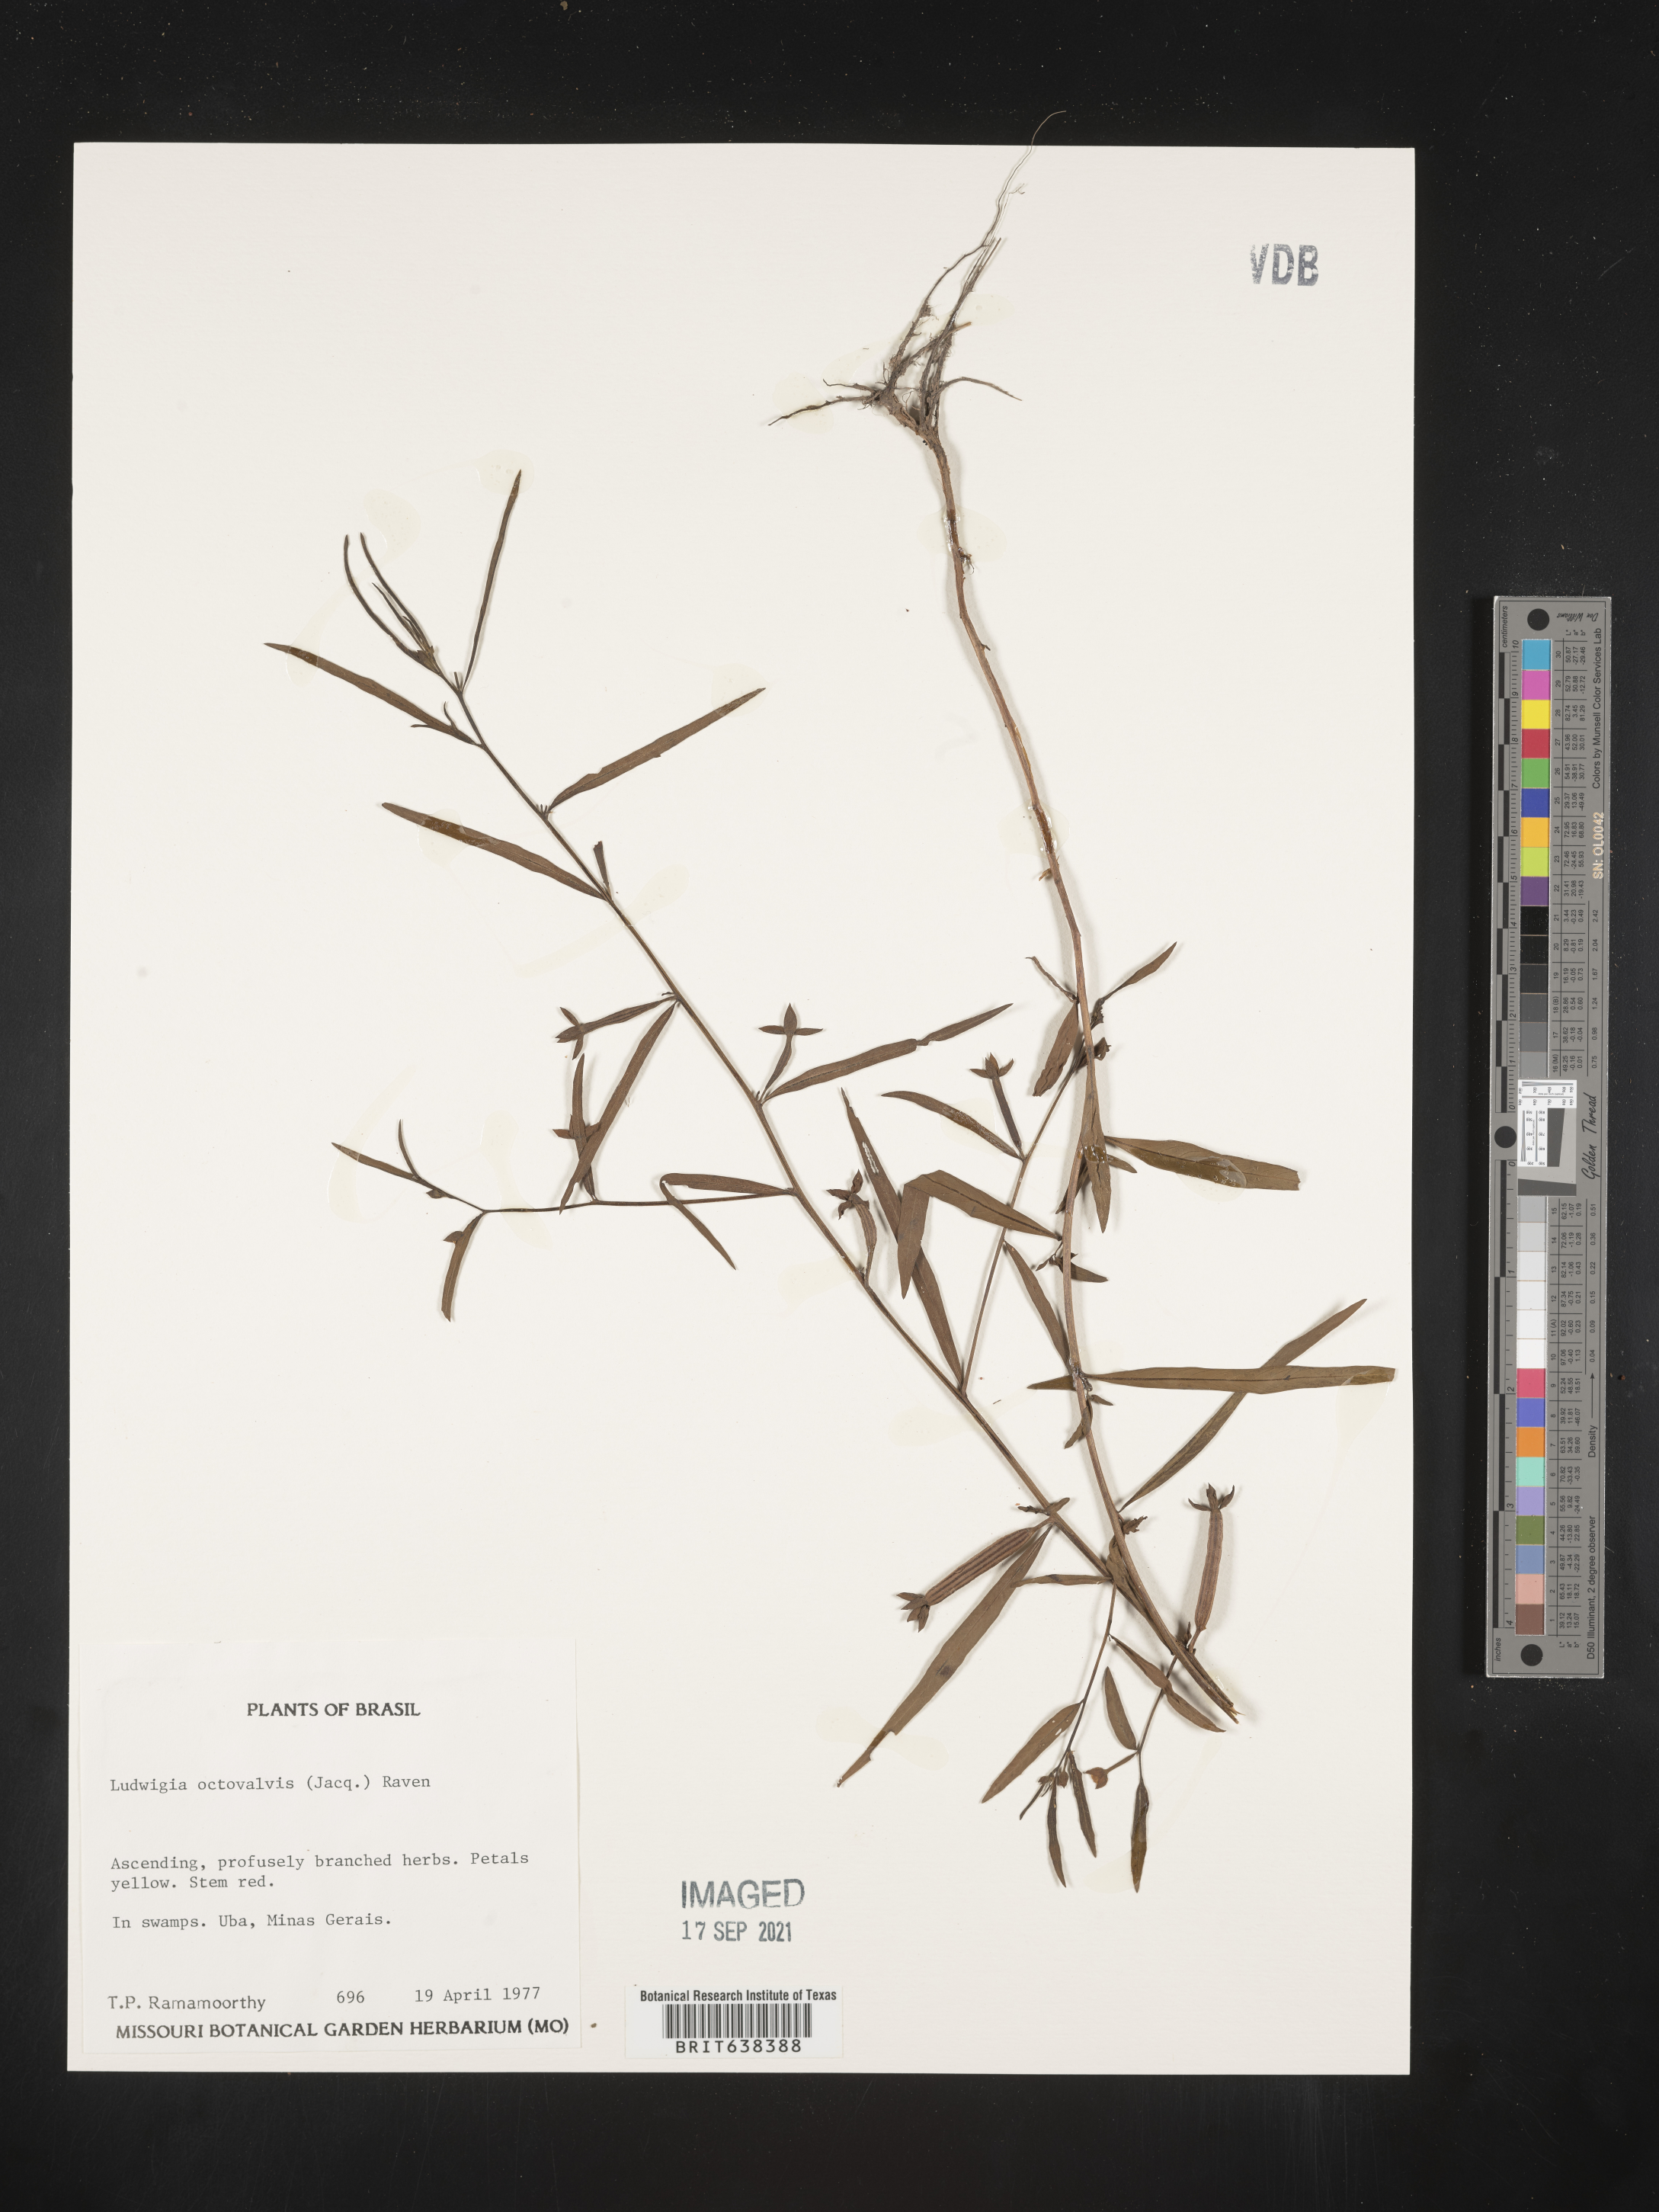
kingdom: Plantae
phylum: Tracheophyta
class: Magnoliopsida
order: Myrtales
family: Onagraceae
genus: Ludwigia
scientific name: Ludwigia
